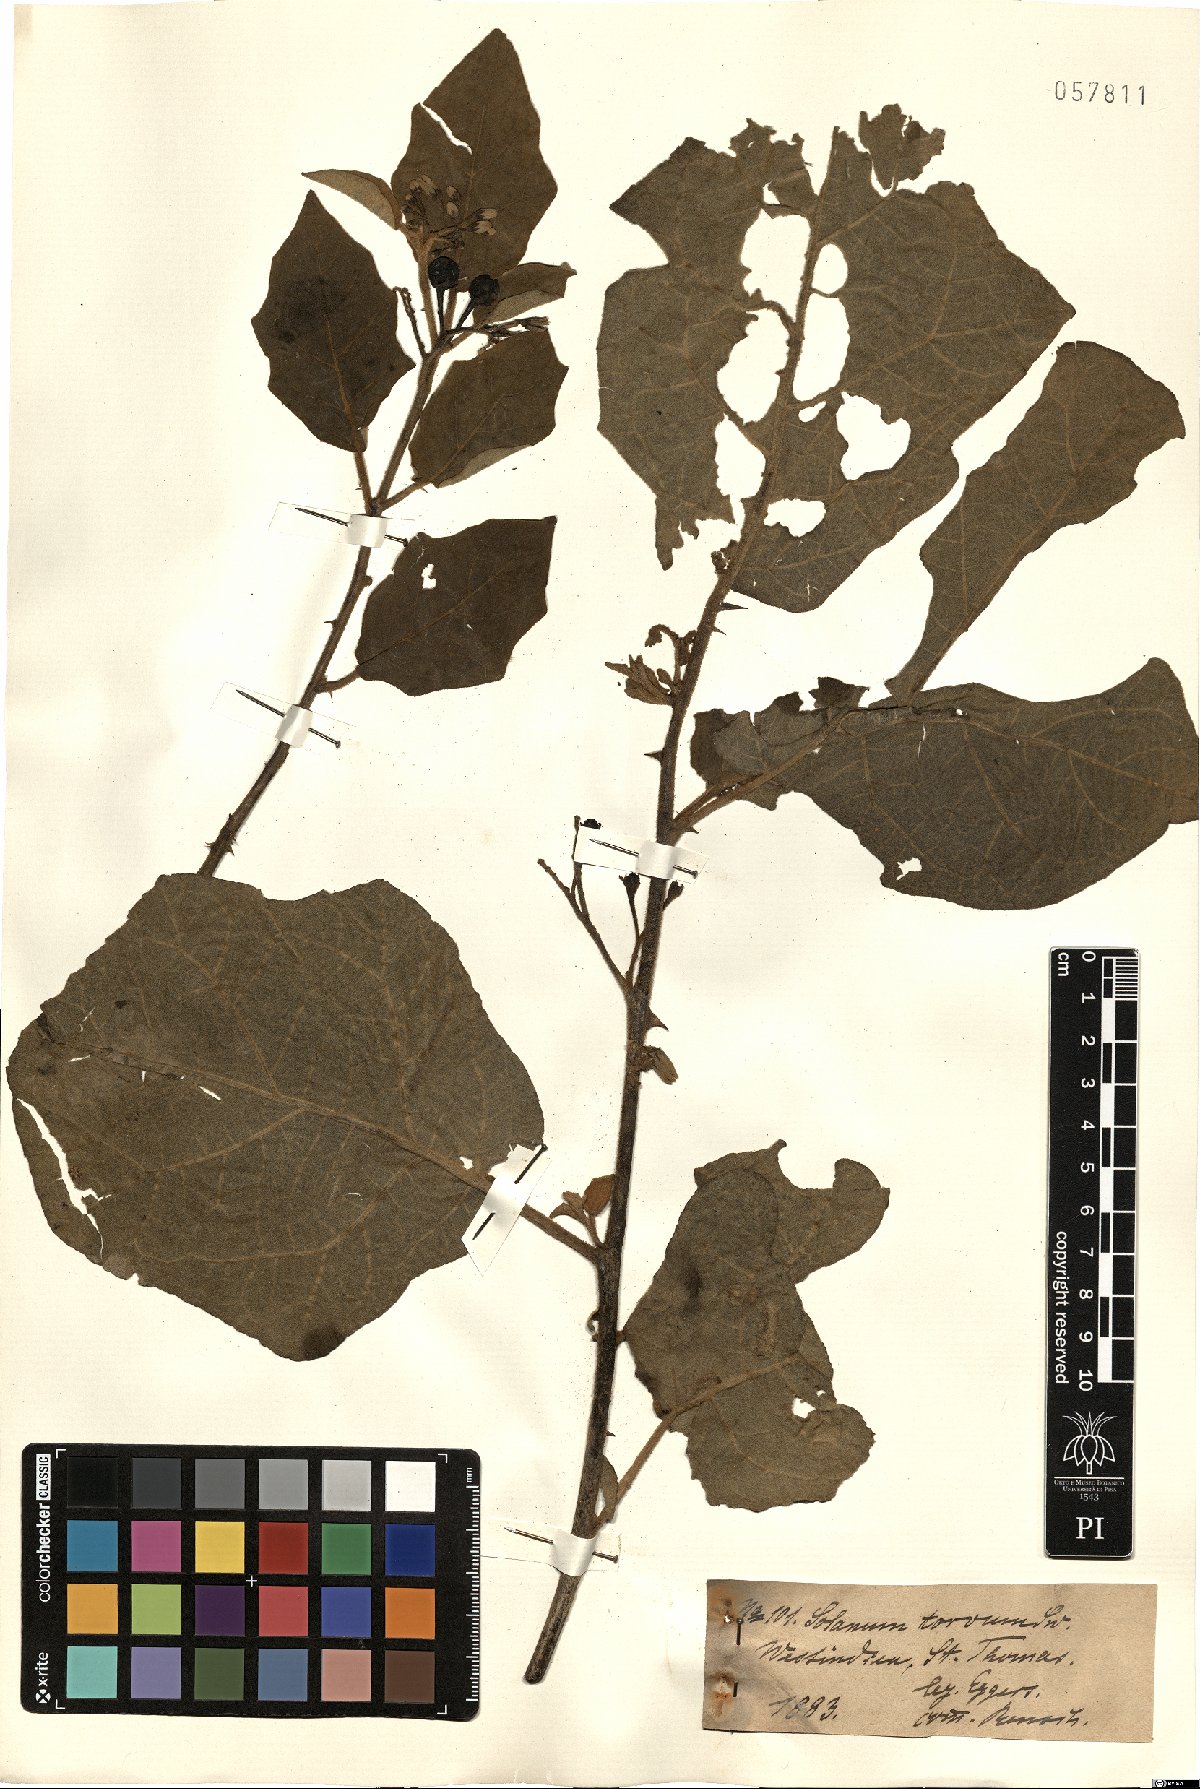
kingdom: Plantae
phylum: Tracheophyta
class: Magnoliopsida
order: Solanales
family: Solanaceae
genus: Solanum
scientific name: Solanum torvum
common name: Turkey berry
